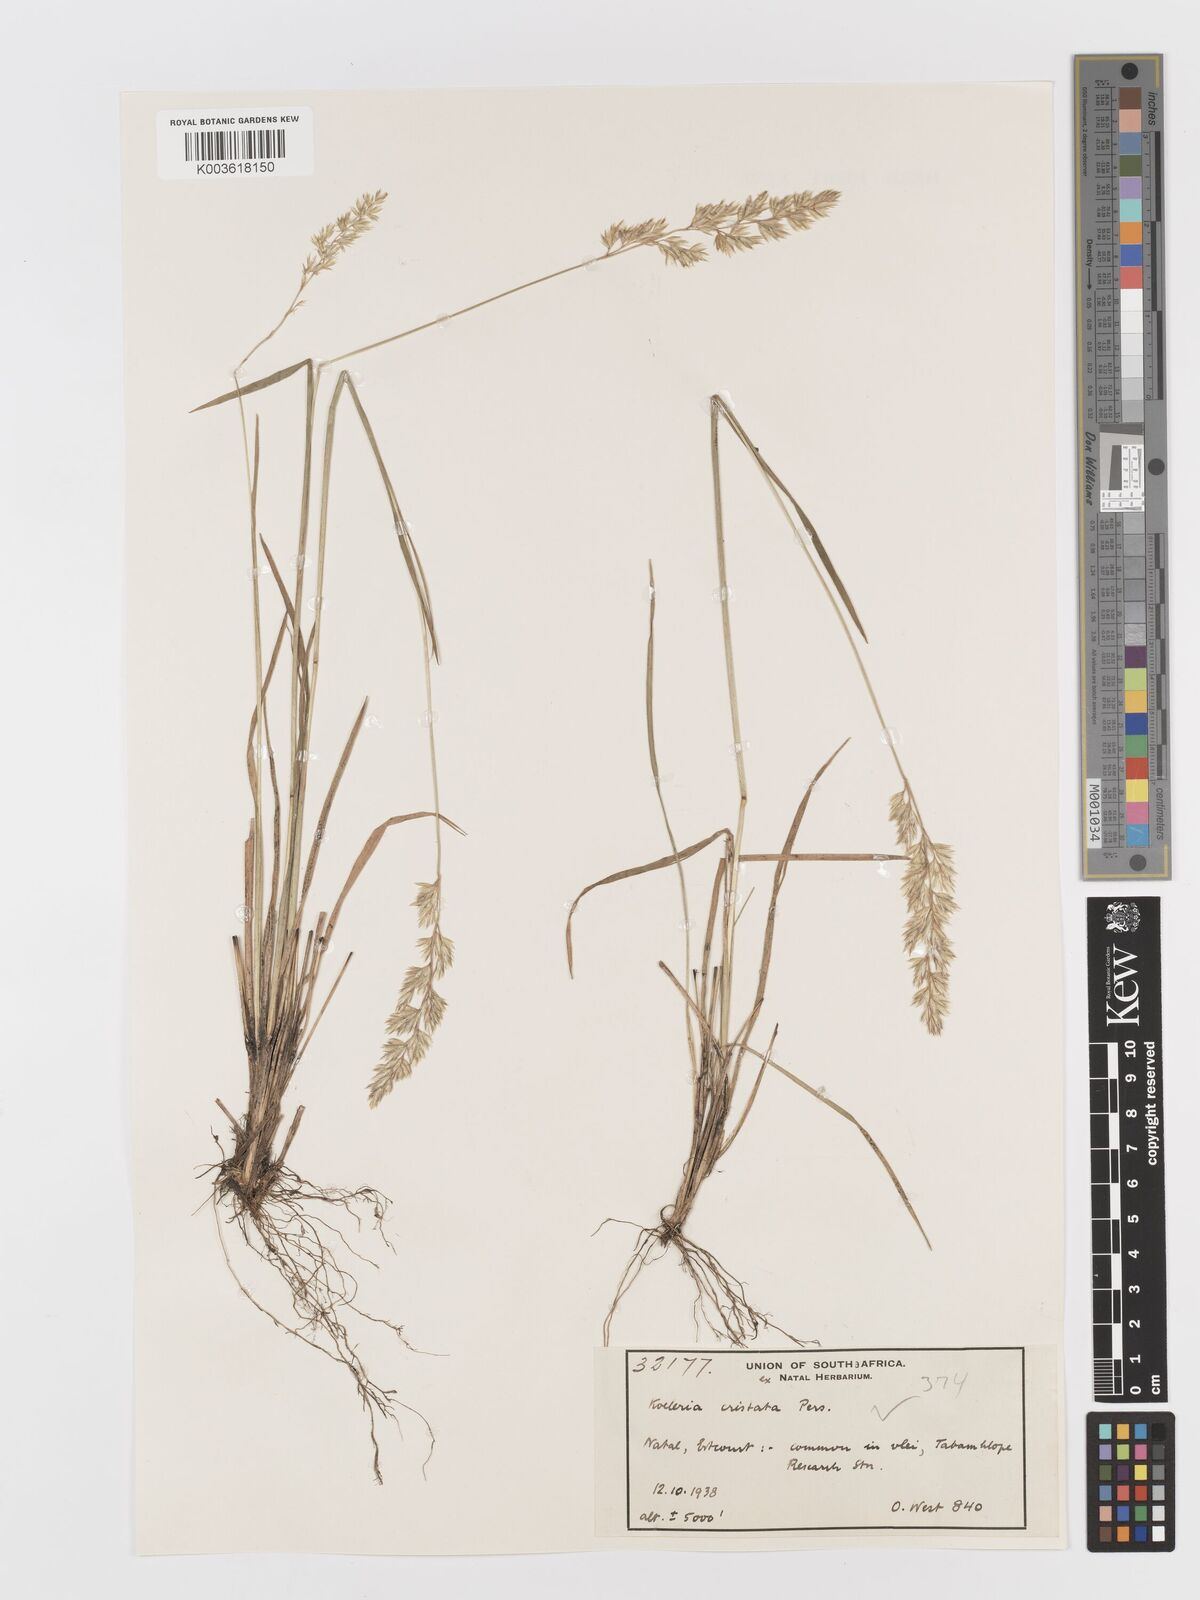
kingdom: Plantae
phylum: Tracheophyta
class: Liliopsida
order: Poales
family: Poaceae
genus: Koeleria
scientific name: Koeleria capensis
